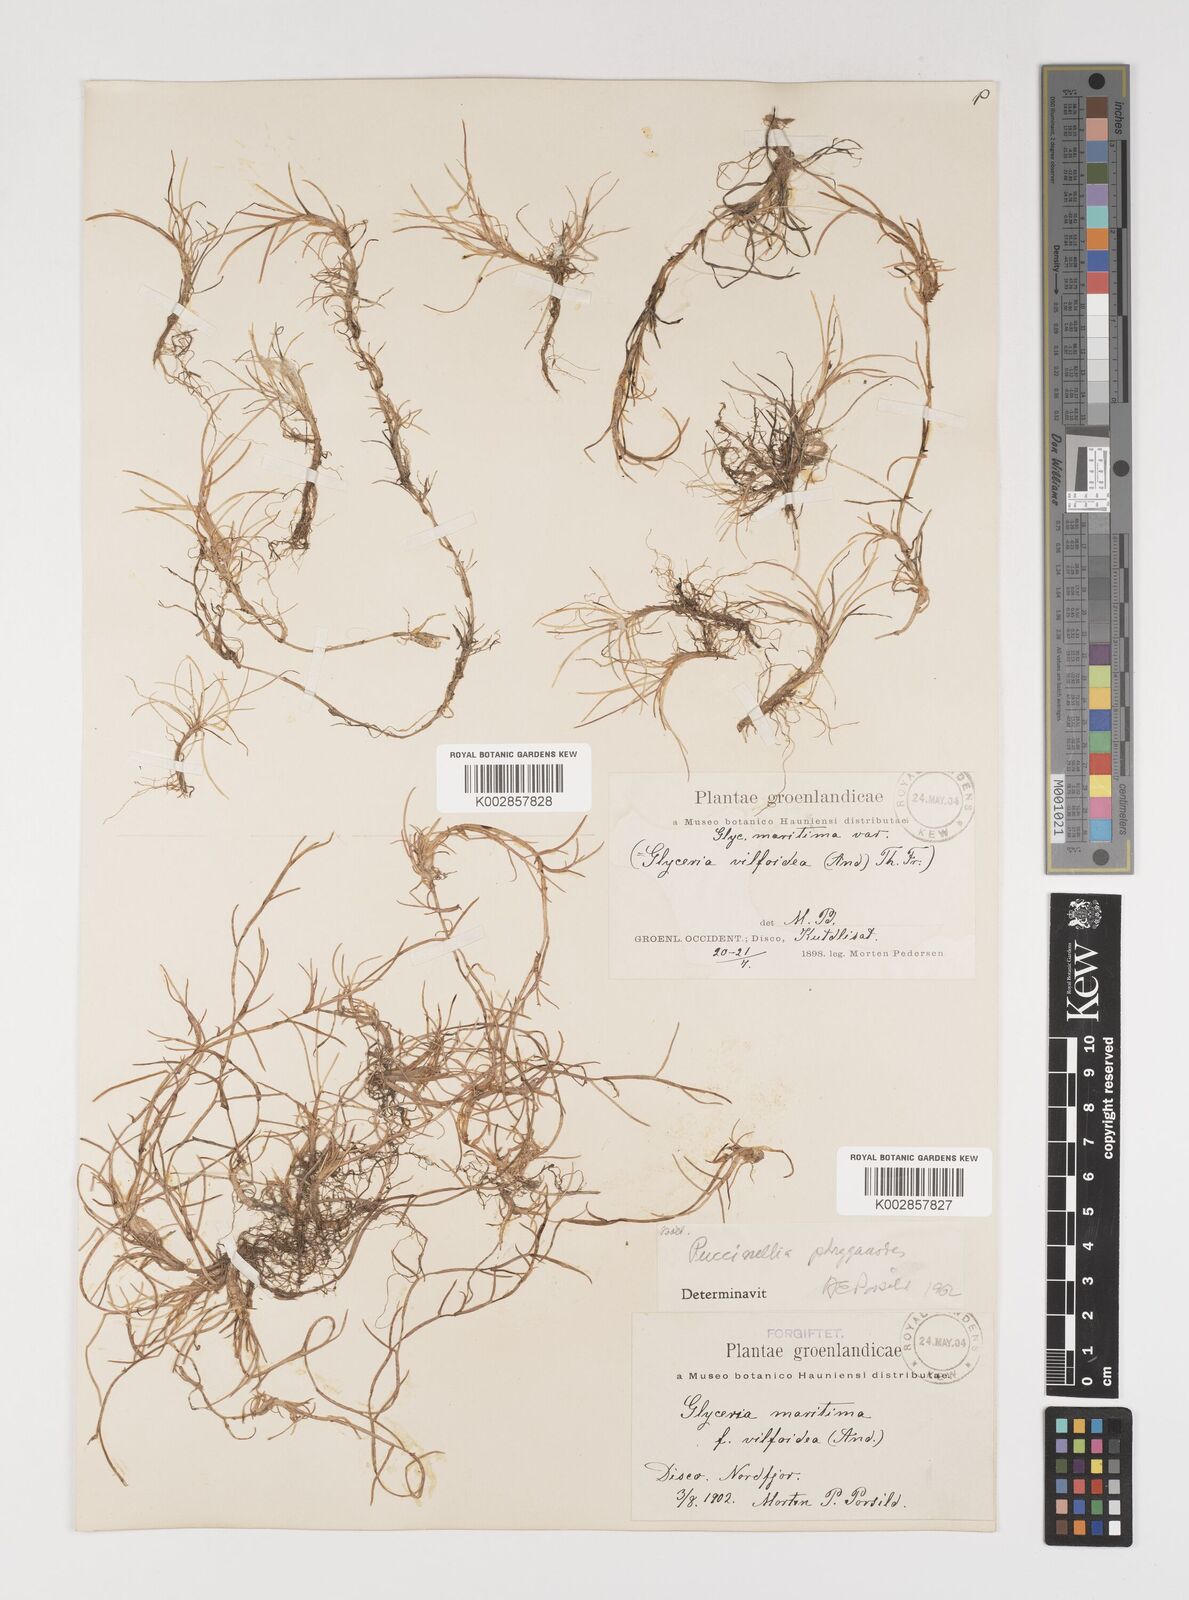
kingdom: Plantae
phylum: Tracheophyta
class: Liliopsida
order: Poales
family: Poaceae
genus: Puccinellia
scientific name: Puccinellia phryganodes
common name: Creeping alkaligrass
